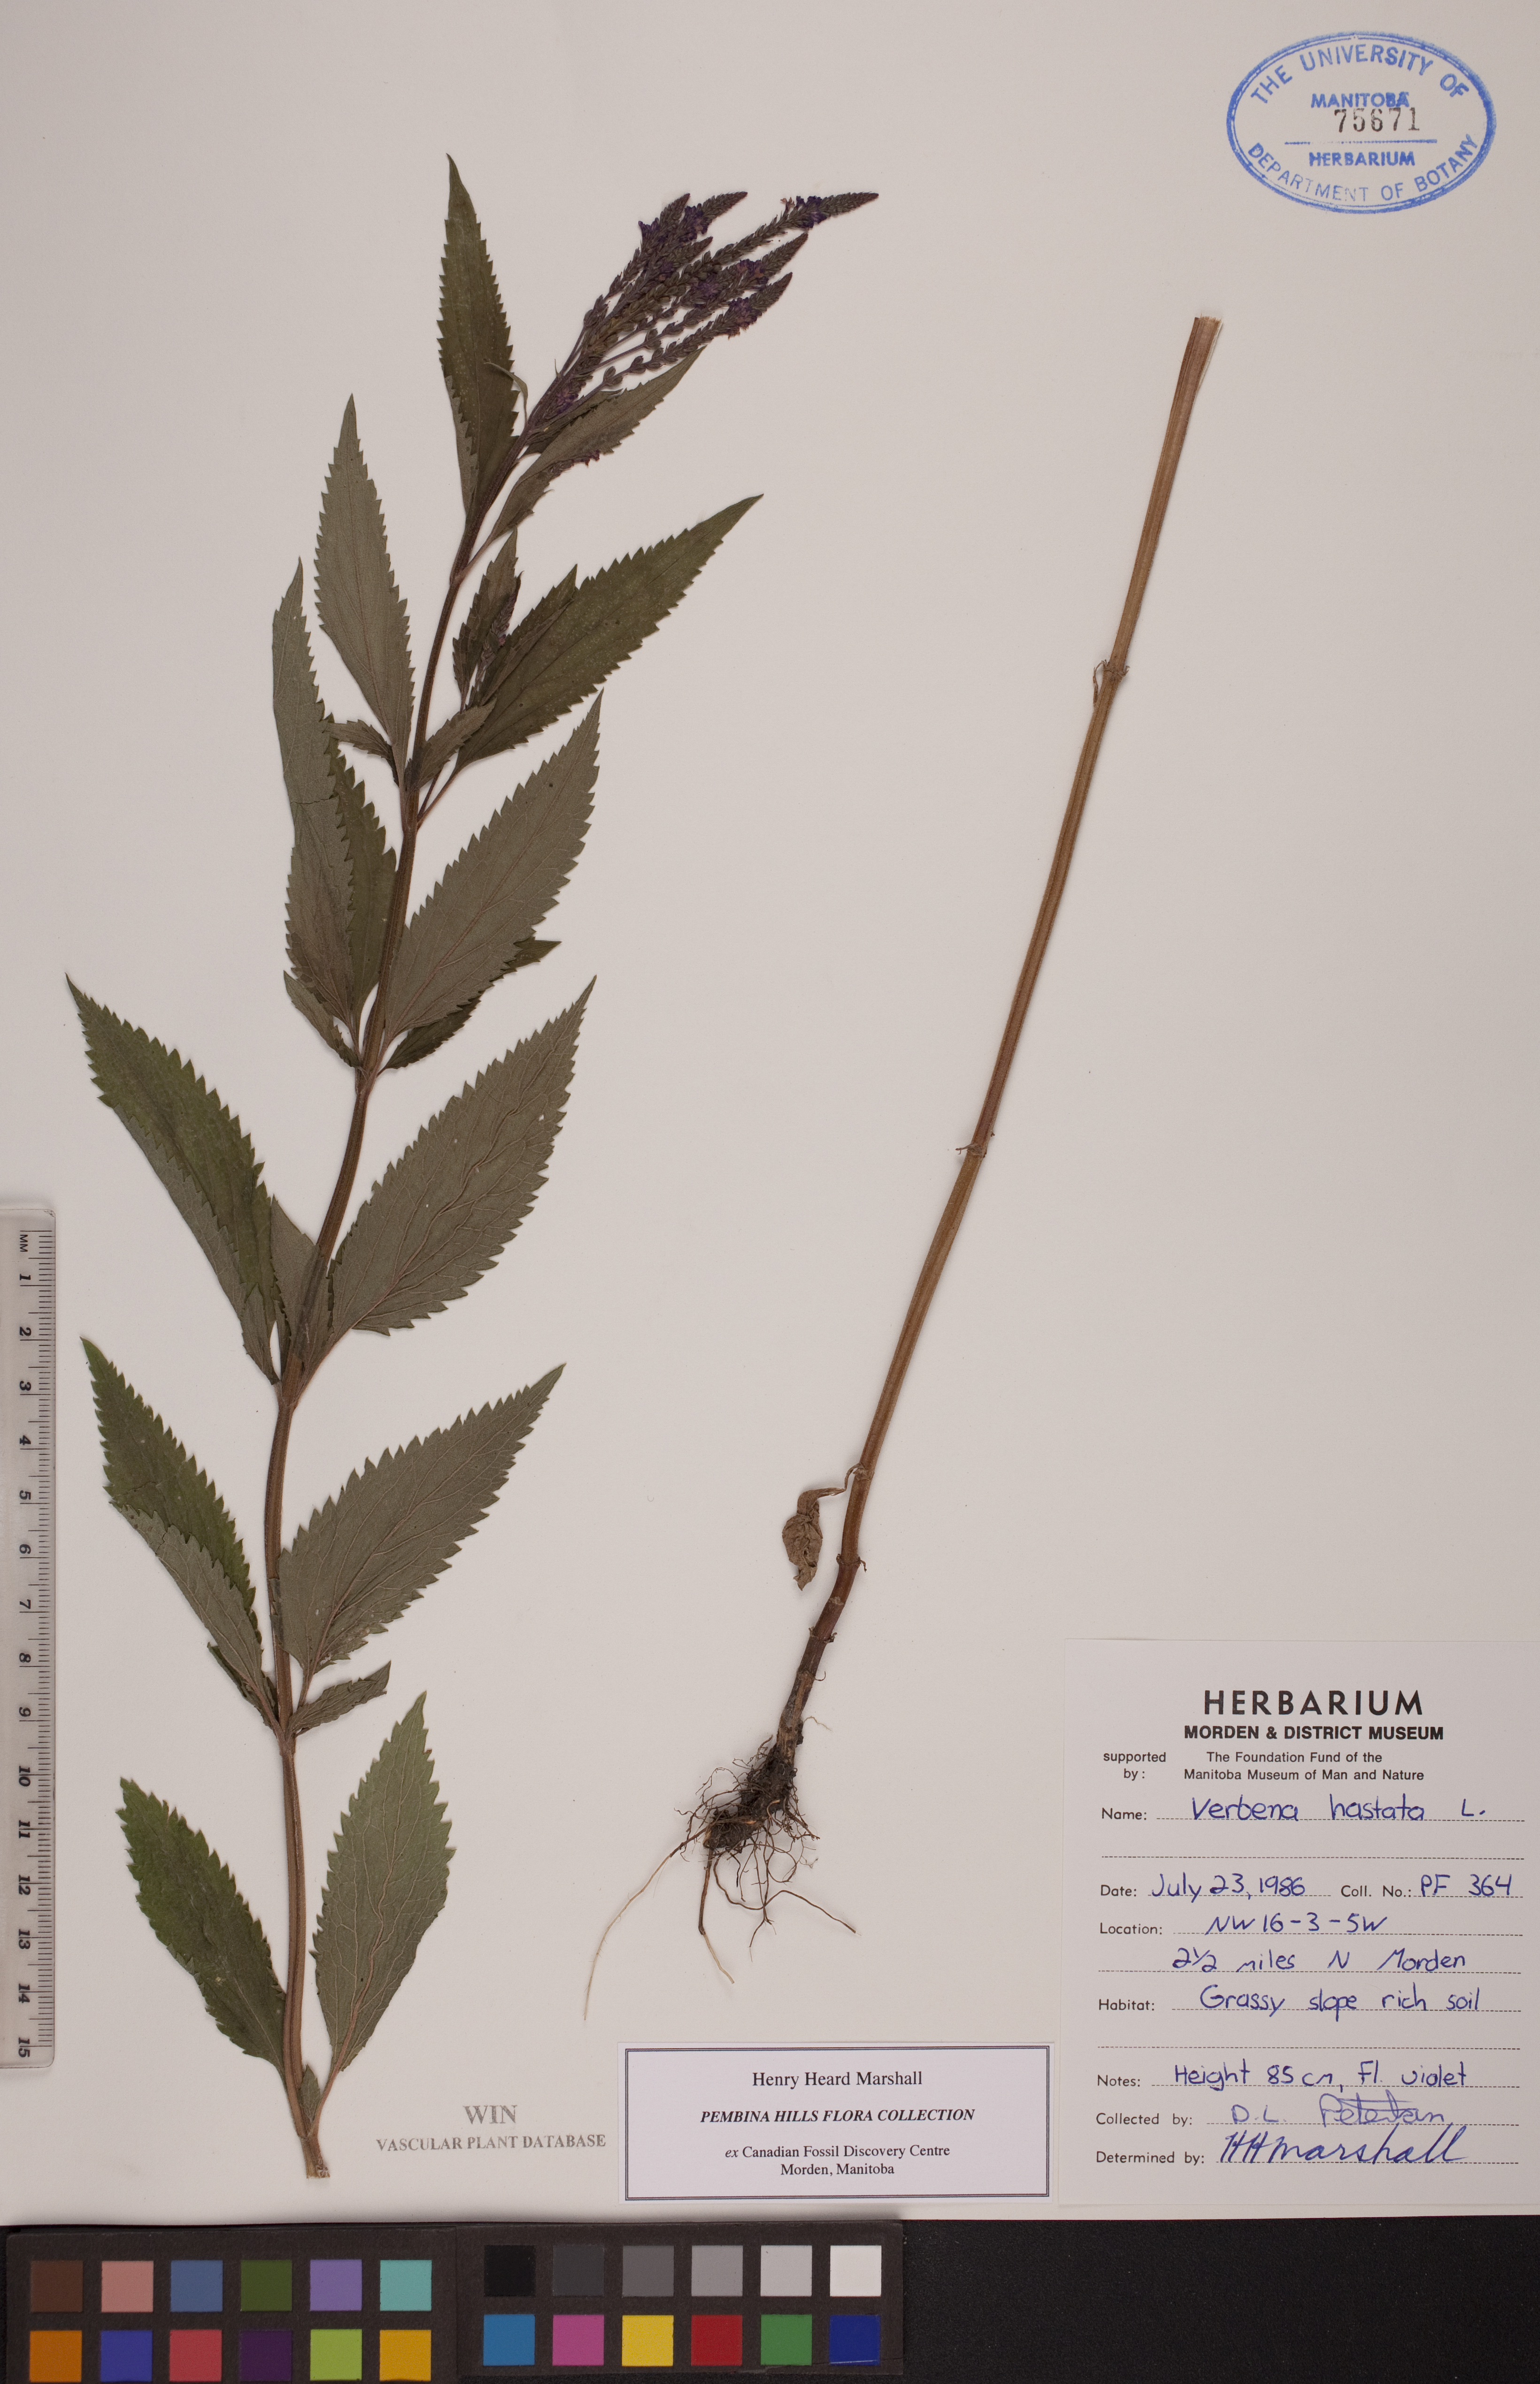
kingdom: Plantae
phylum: Tracheophyta
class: Magnoliopsida
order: Lamiales
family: Verbenaceae
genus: Verbena
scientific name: Verbena hastata
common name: American blue vervain
